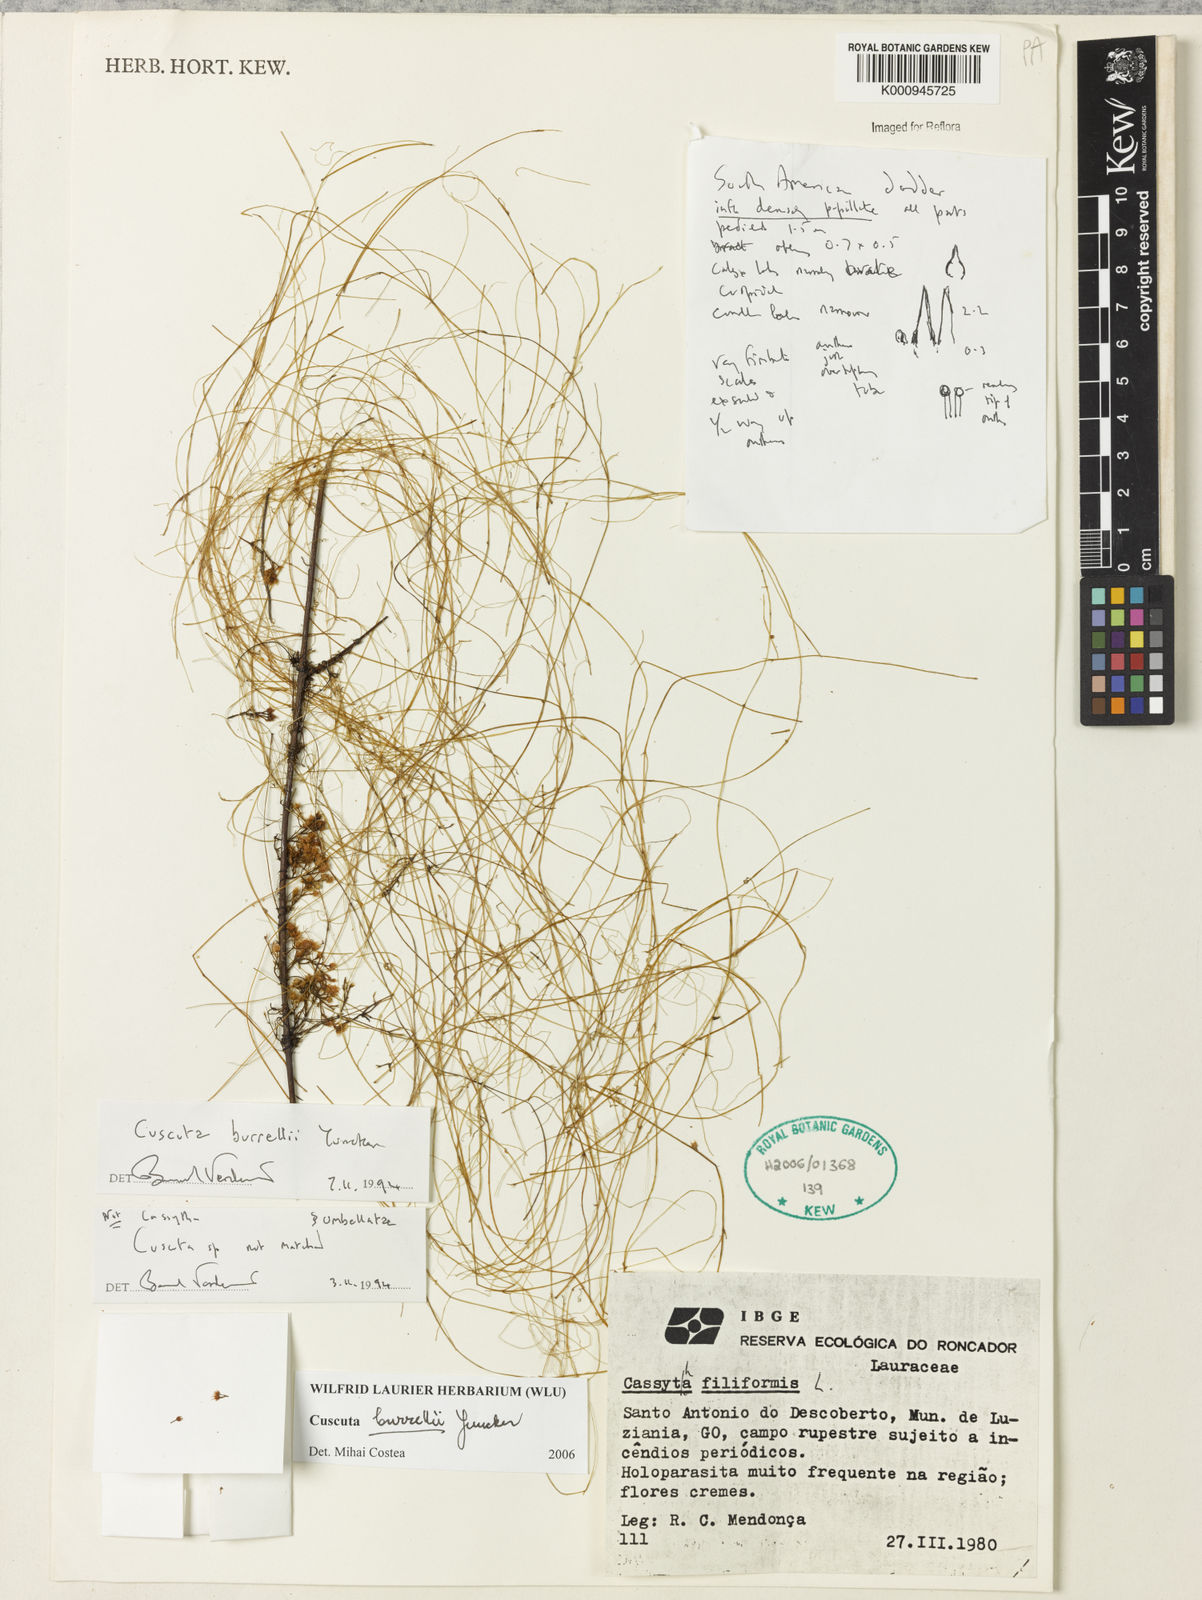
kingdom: Plantae
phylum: Tracheophyta
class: Magnoliopsida
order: Solanales
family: Convolvulaceae
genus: Cuscuta
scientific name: Cuscuta burrellii
